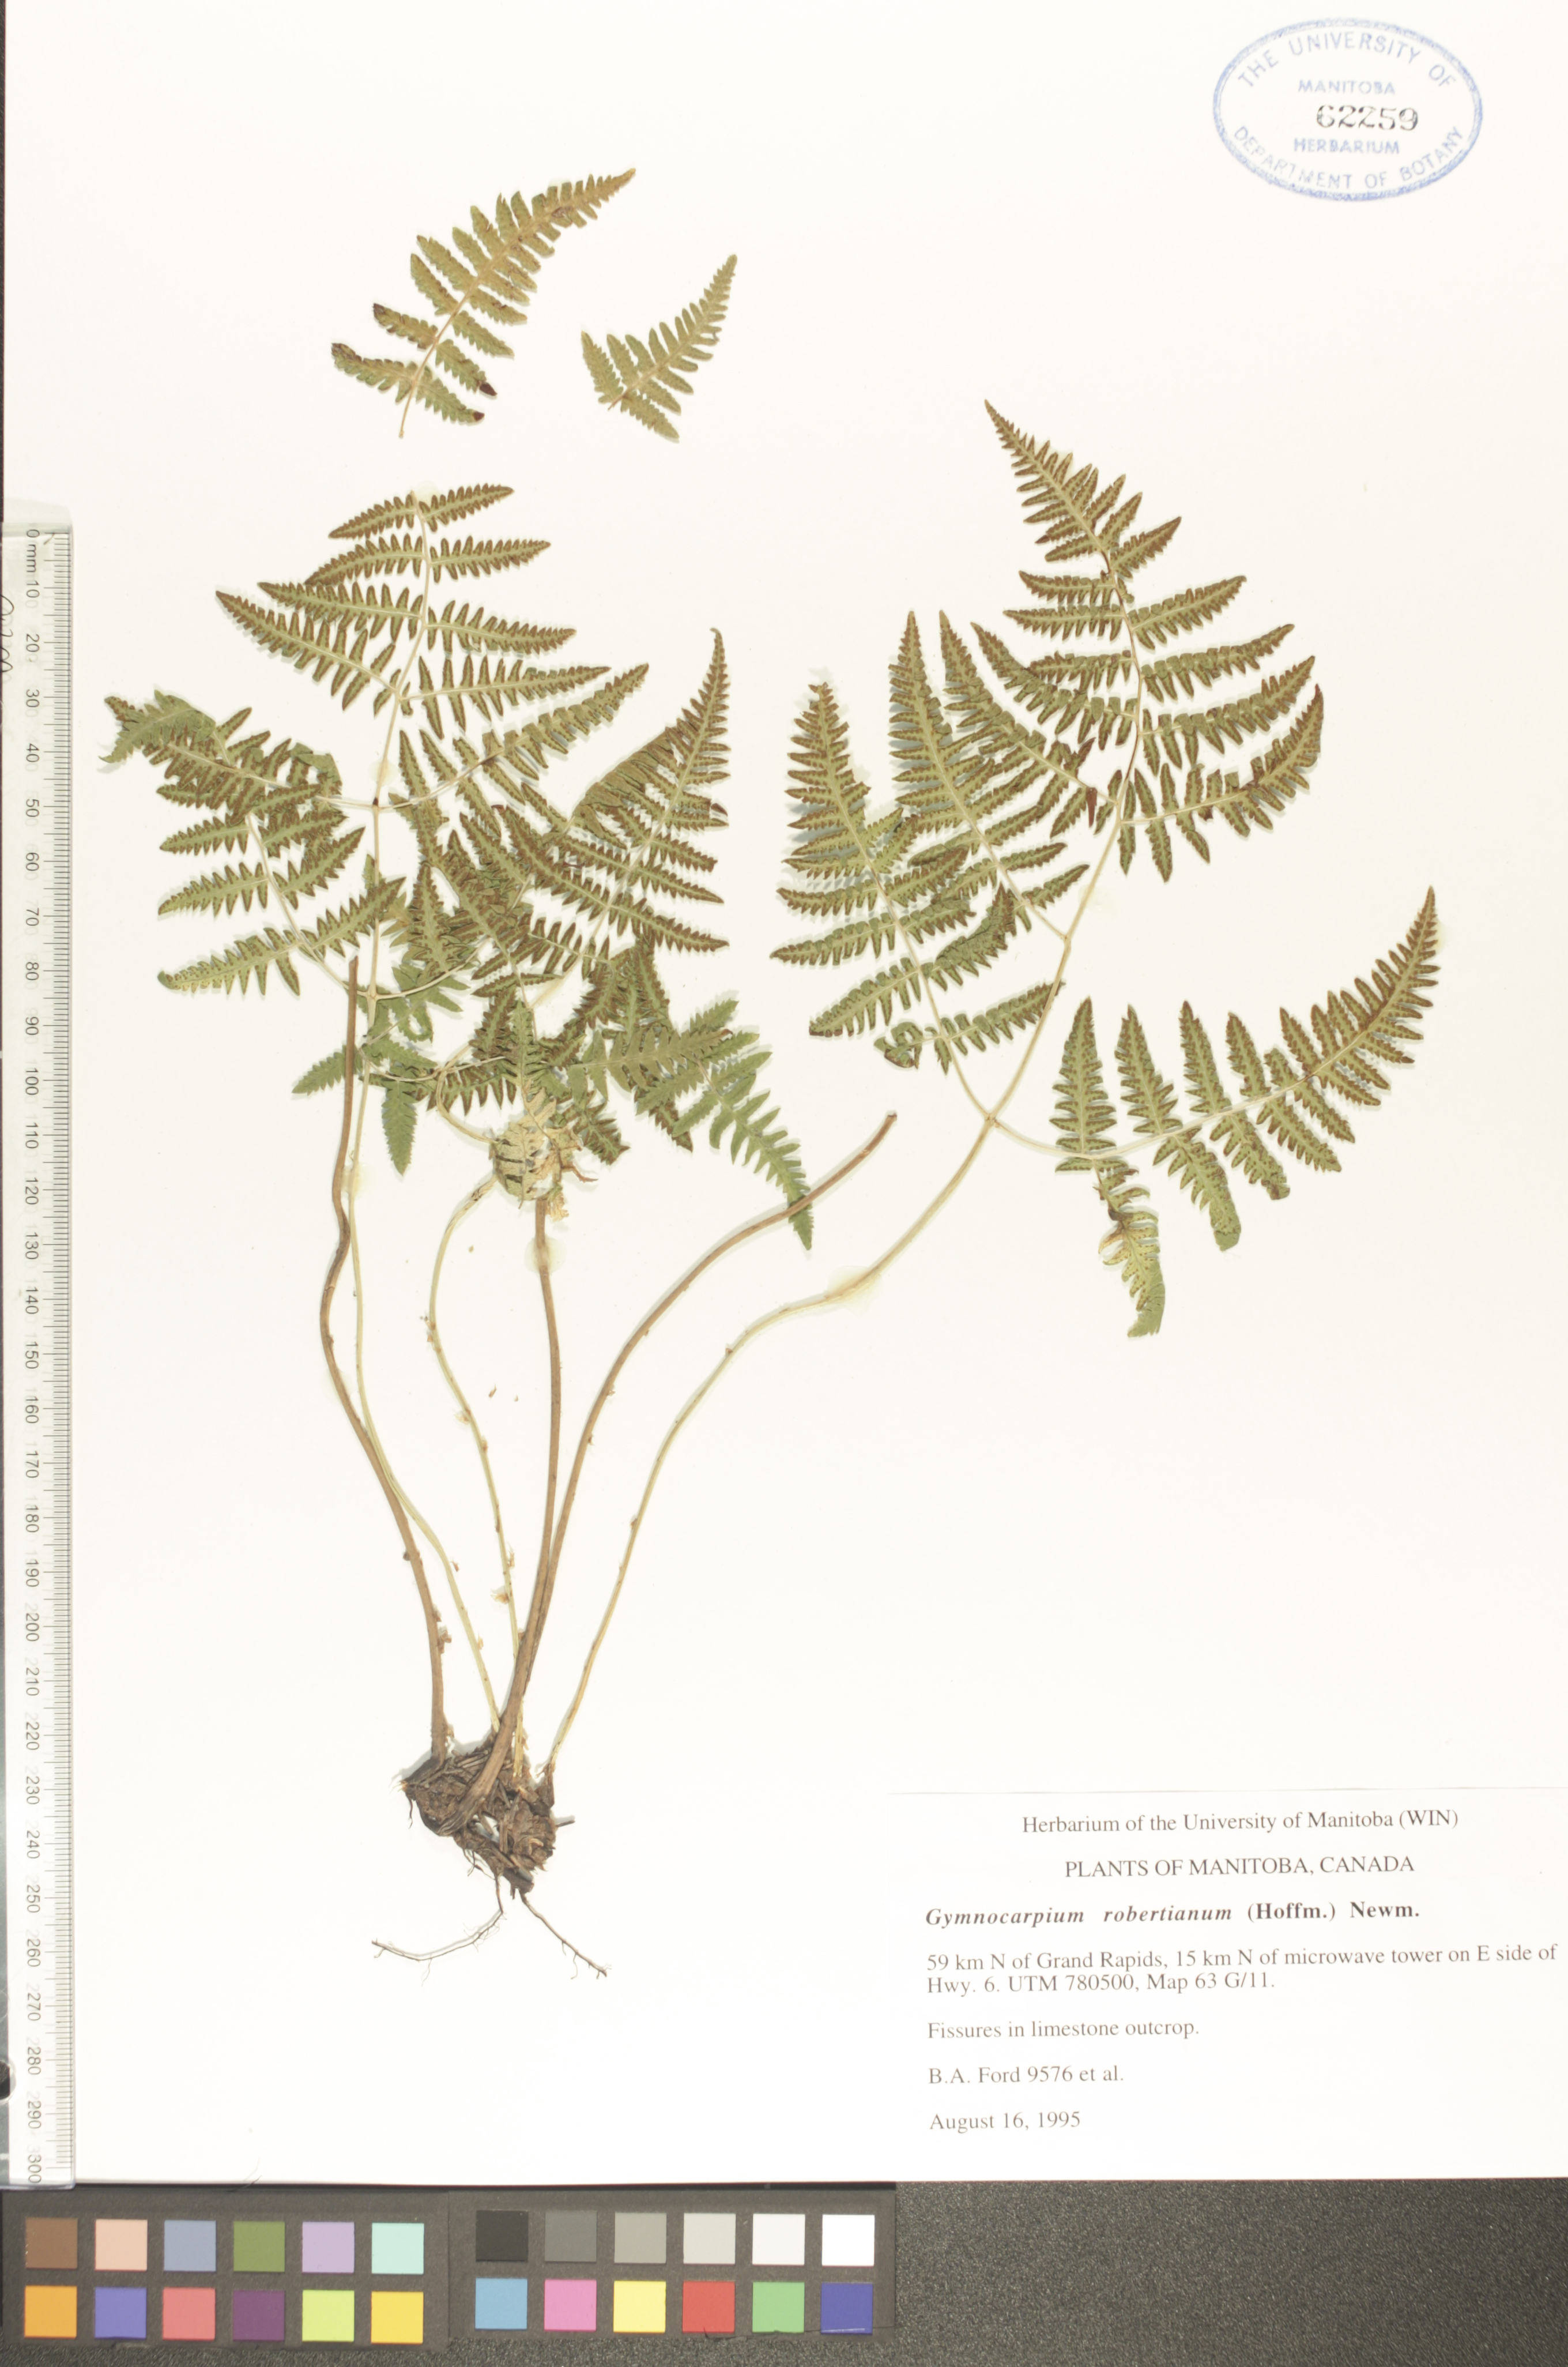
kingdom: Plantae
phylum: Tracheophyta
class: Polypodiopsida
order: Polypodiales
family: Cystopteridaceae
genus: Gymnocarpium
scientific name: Gymnocarpium robertianum
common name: Limestone fern
